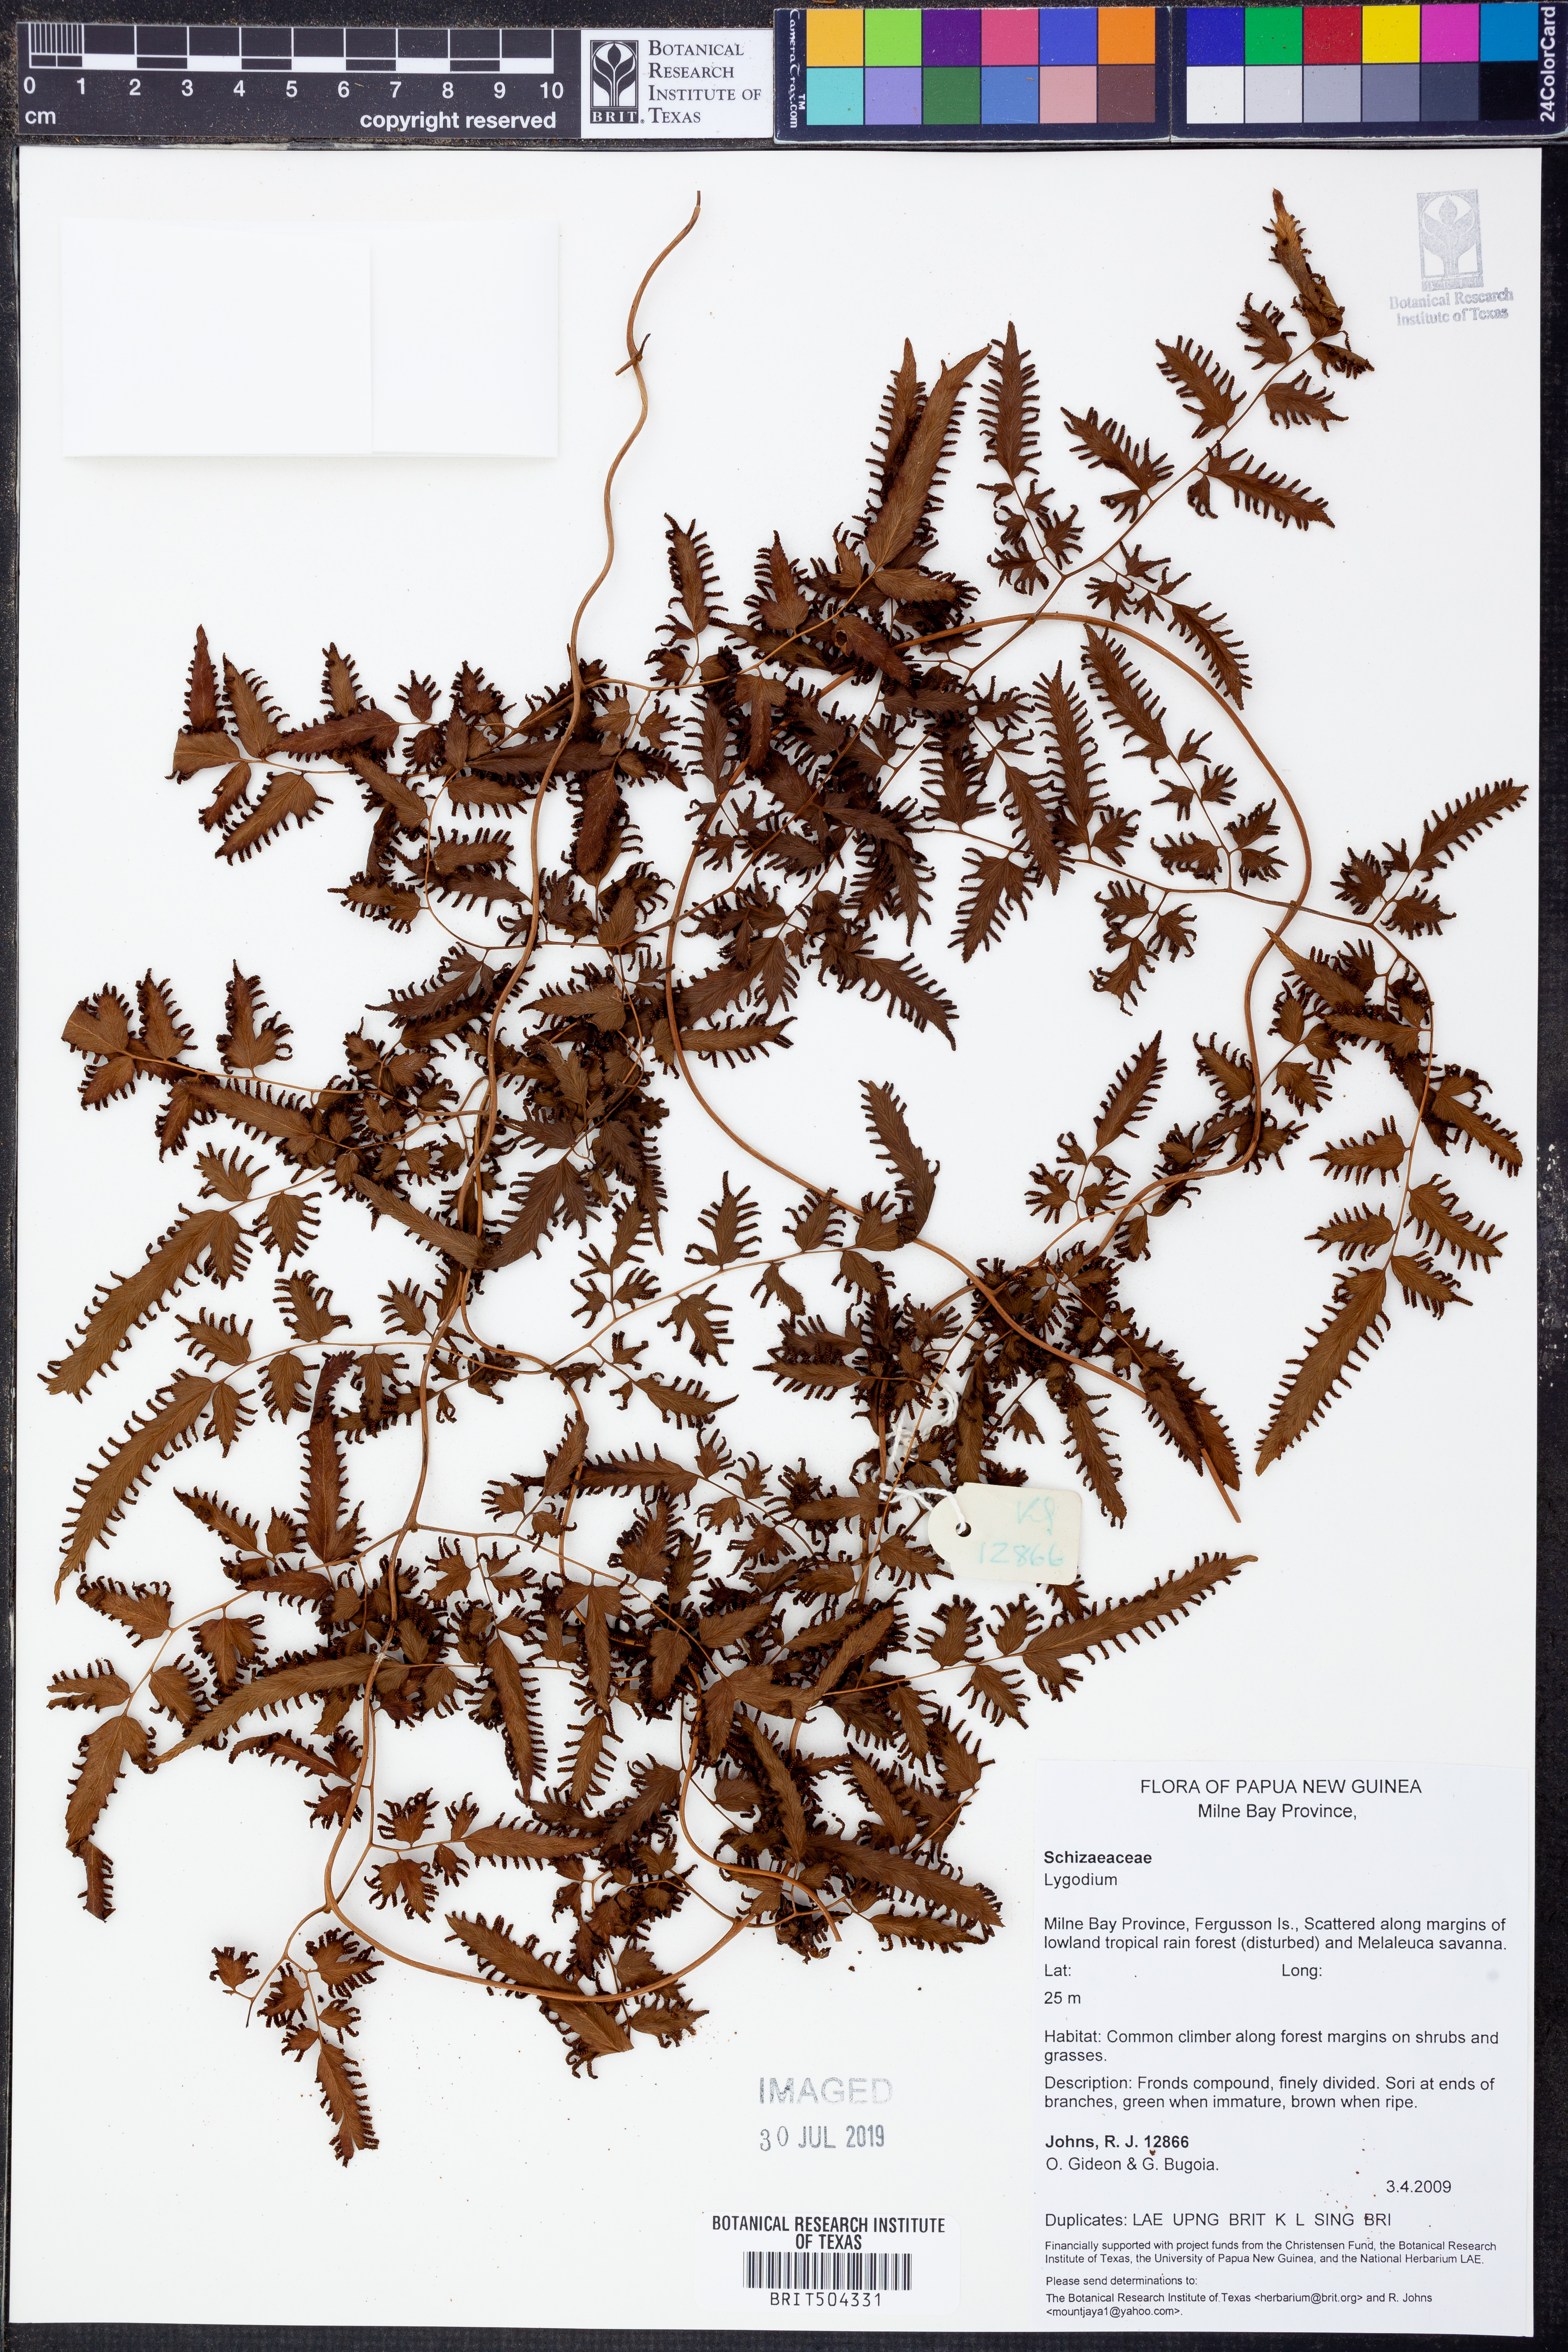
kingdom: Plantae
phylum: Tracheophyta
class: Polypodiopsida
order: Schizaeales
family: Lygodiaceae
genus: Lygodium
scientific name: Lygodium
